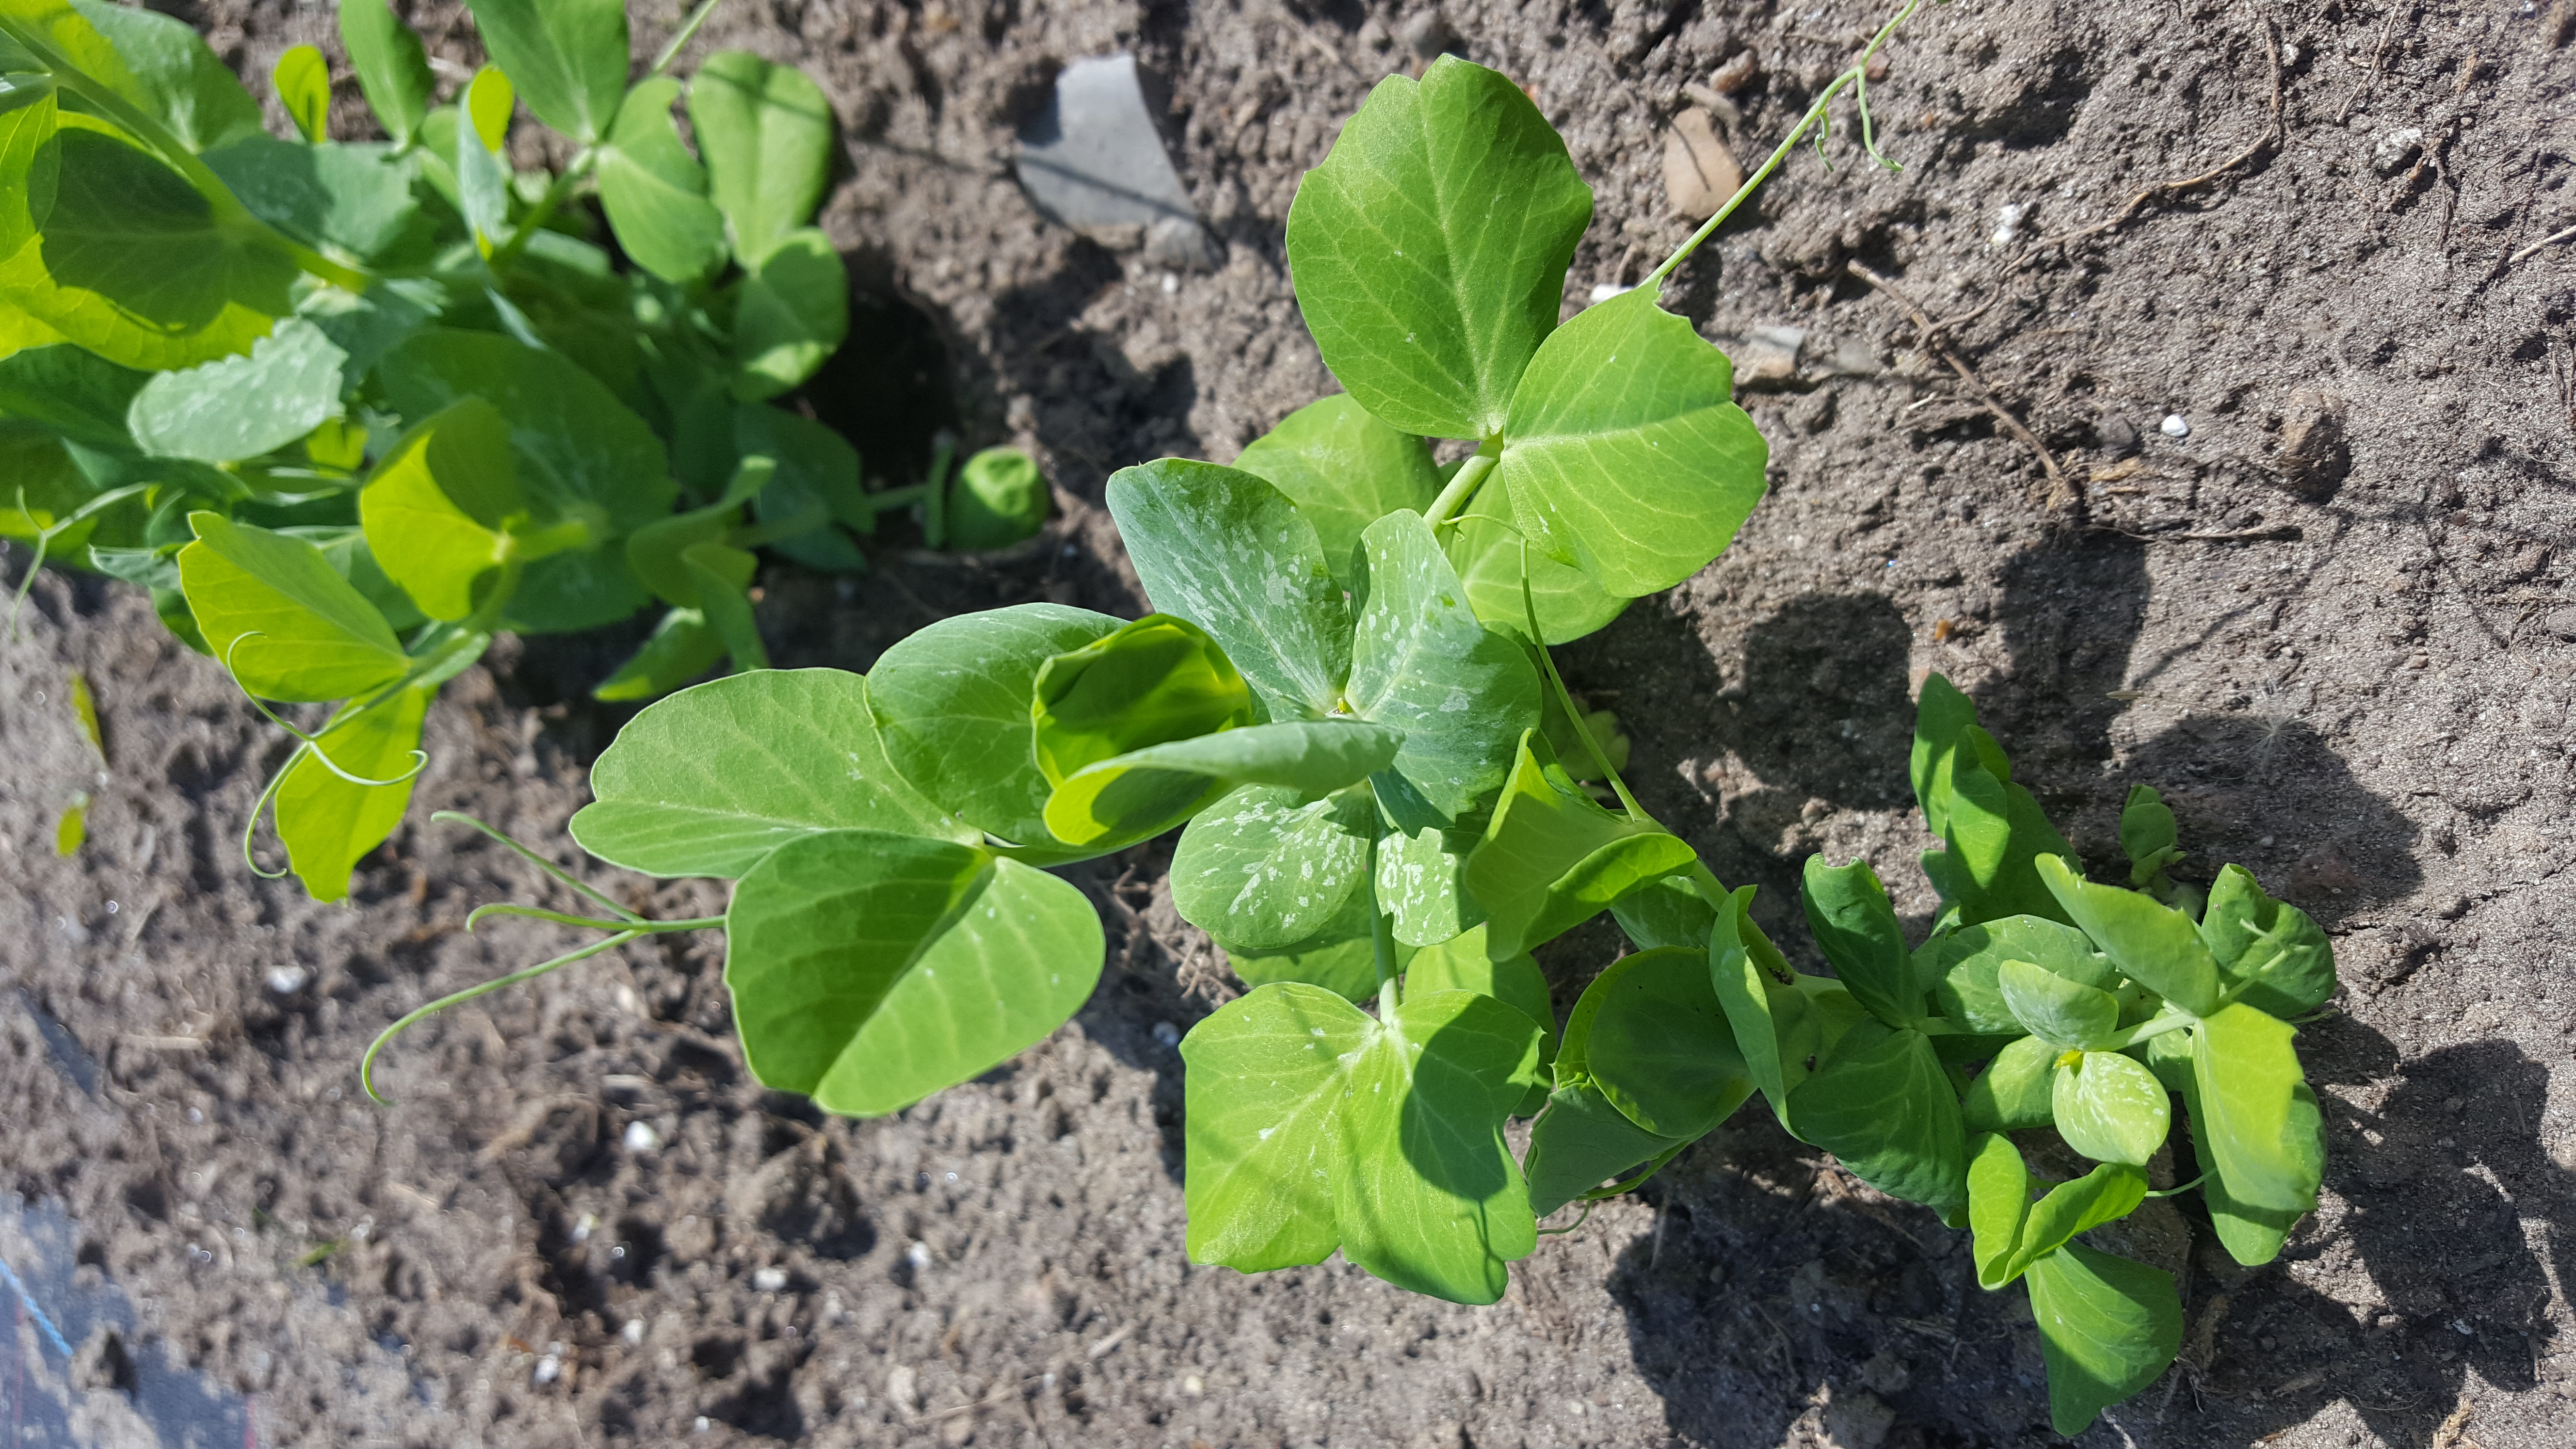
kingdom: Plantae
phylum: Tracheophyta
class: Magnoliopsida
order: Fabales
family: Fabaceae
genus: Lathyrus
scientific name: Lathyrus oleraceus
